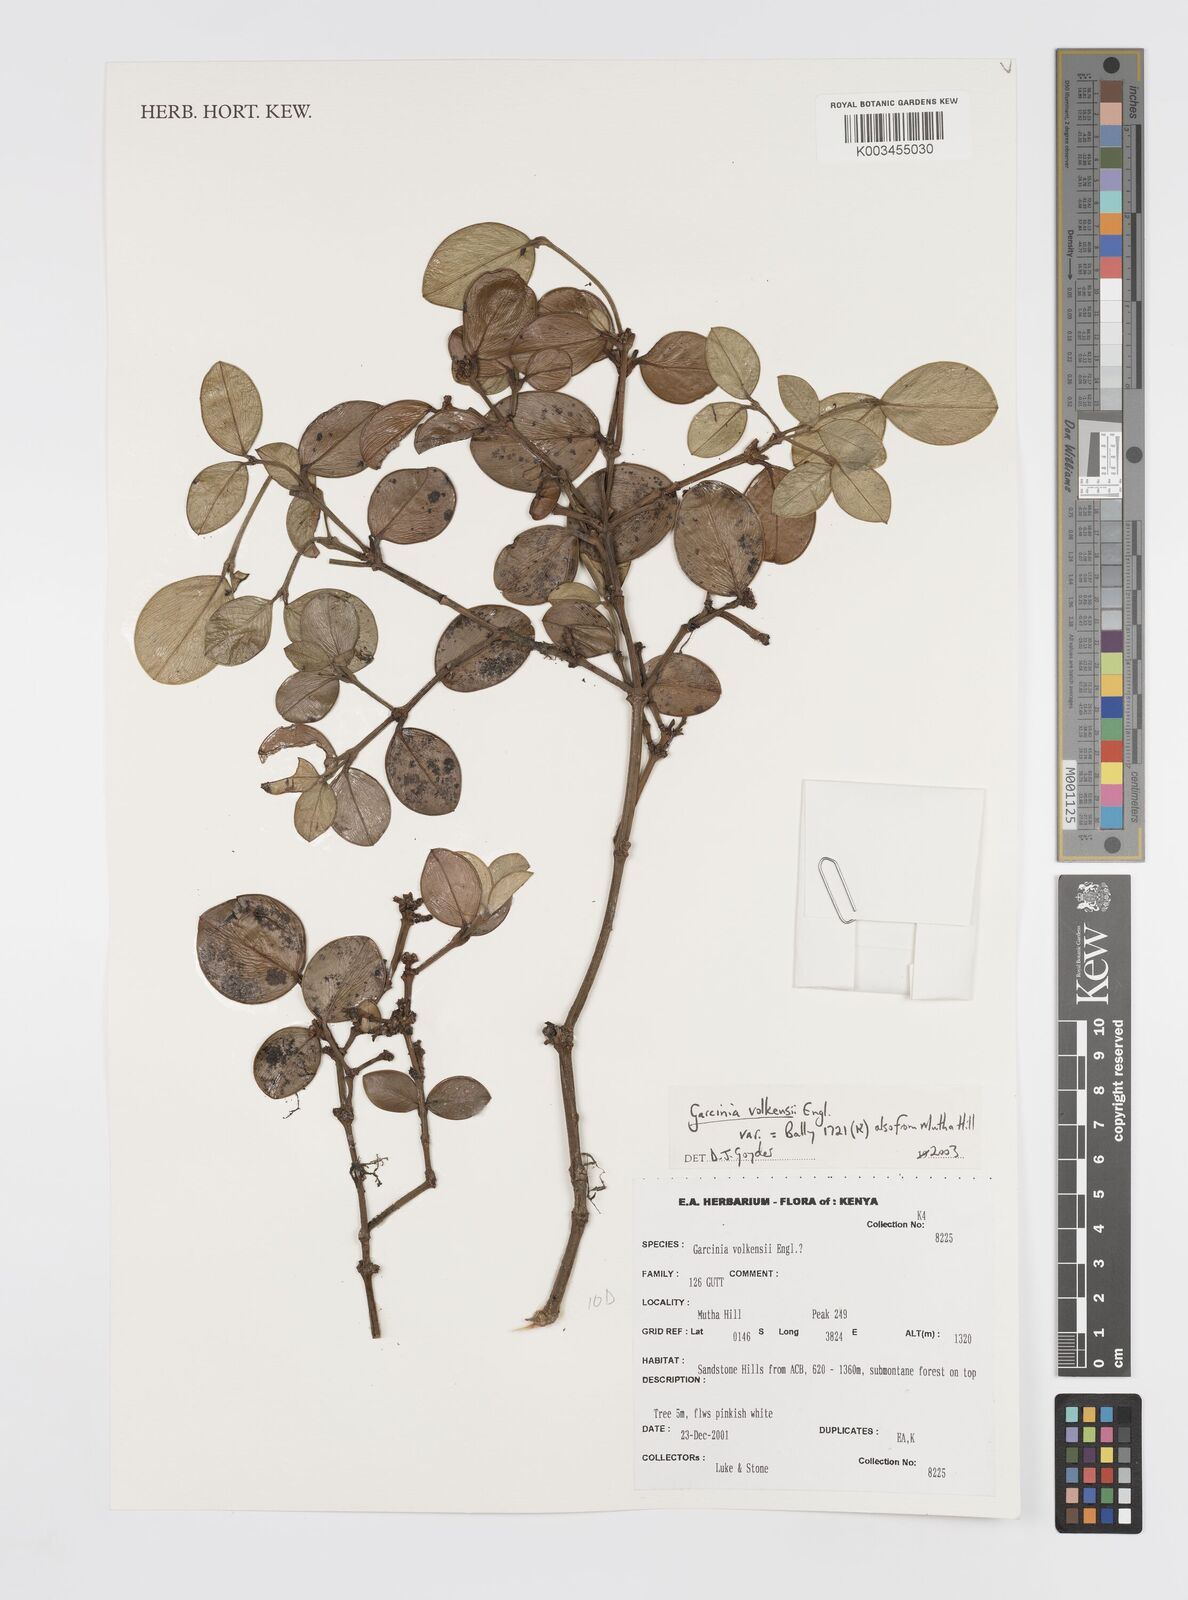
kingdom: Plantae
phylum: Tracheophyta
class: Magnoliopsida
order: Malpighiales
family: Clusiaceae
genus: Garcinia
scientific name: Garcinia volkensii
